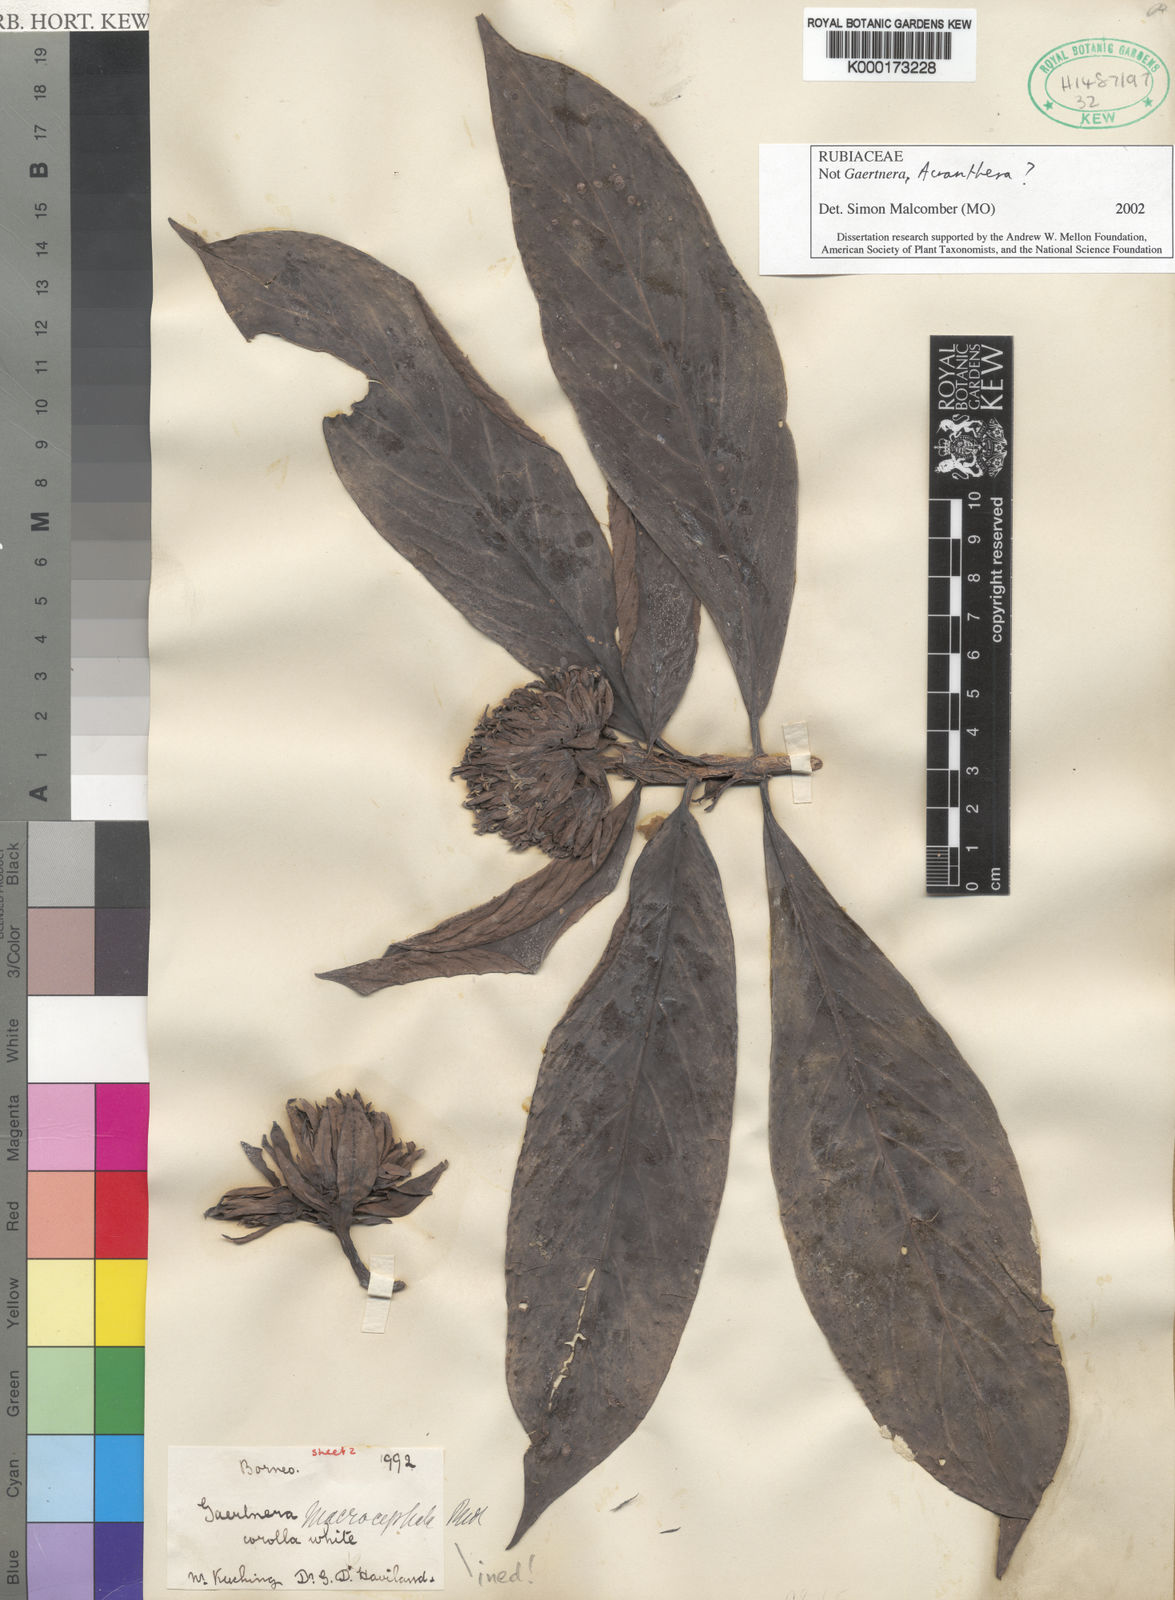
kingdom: Plantae
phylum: Tracheophyta
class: Magnoliopsida
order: Gentianales
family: Rubiaceae
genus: Gaertnera
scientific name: Gaertnera
